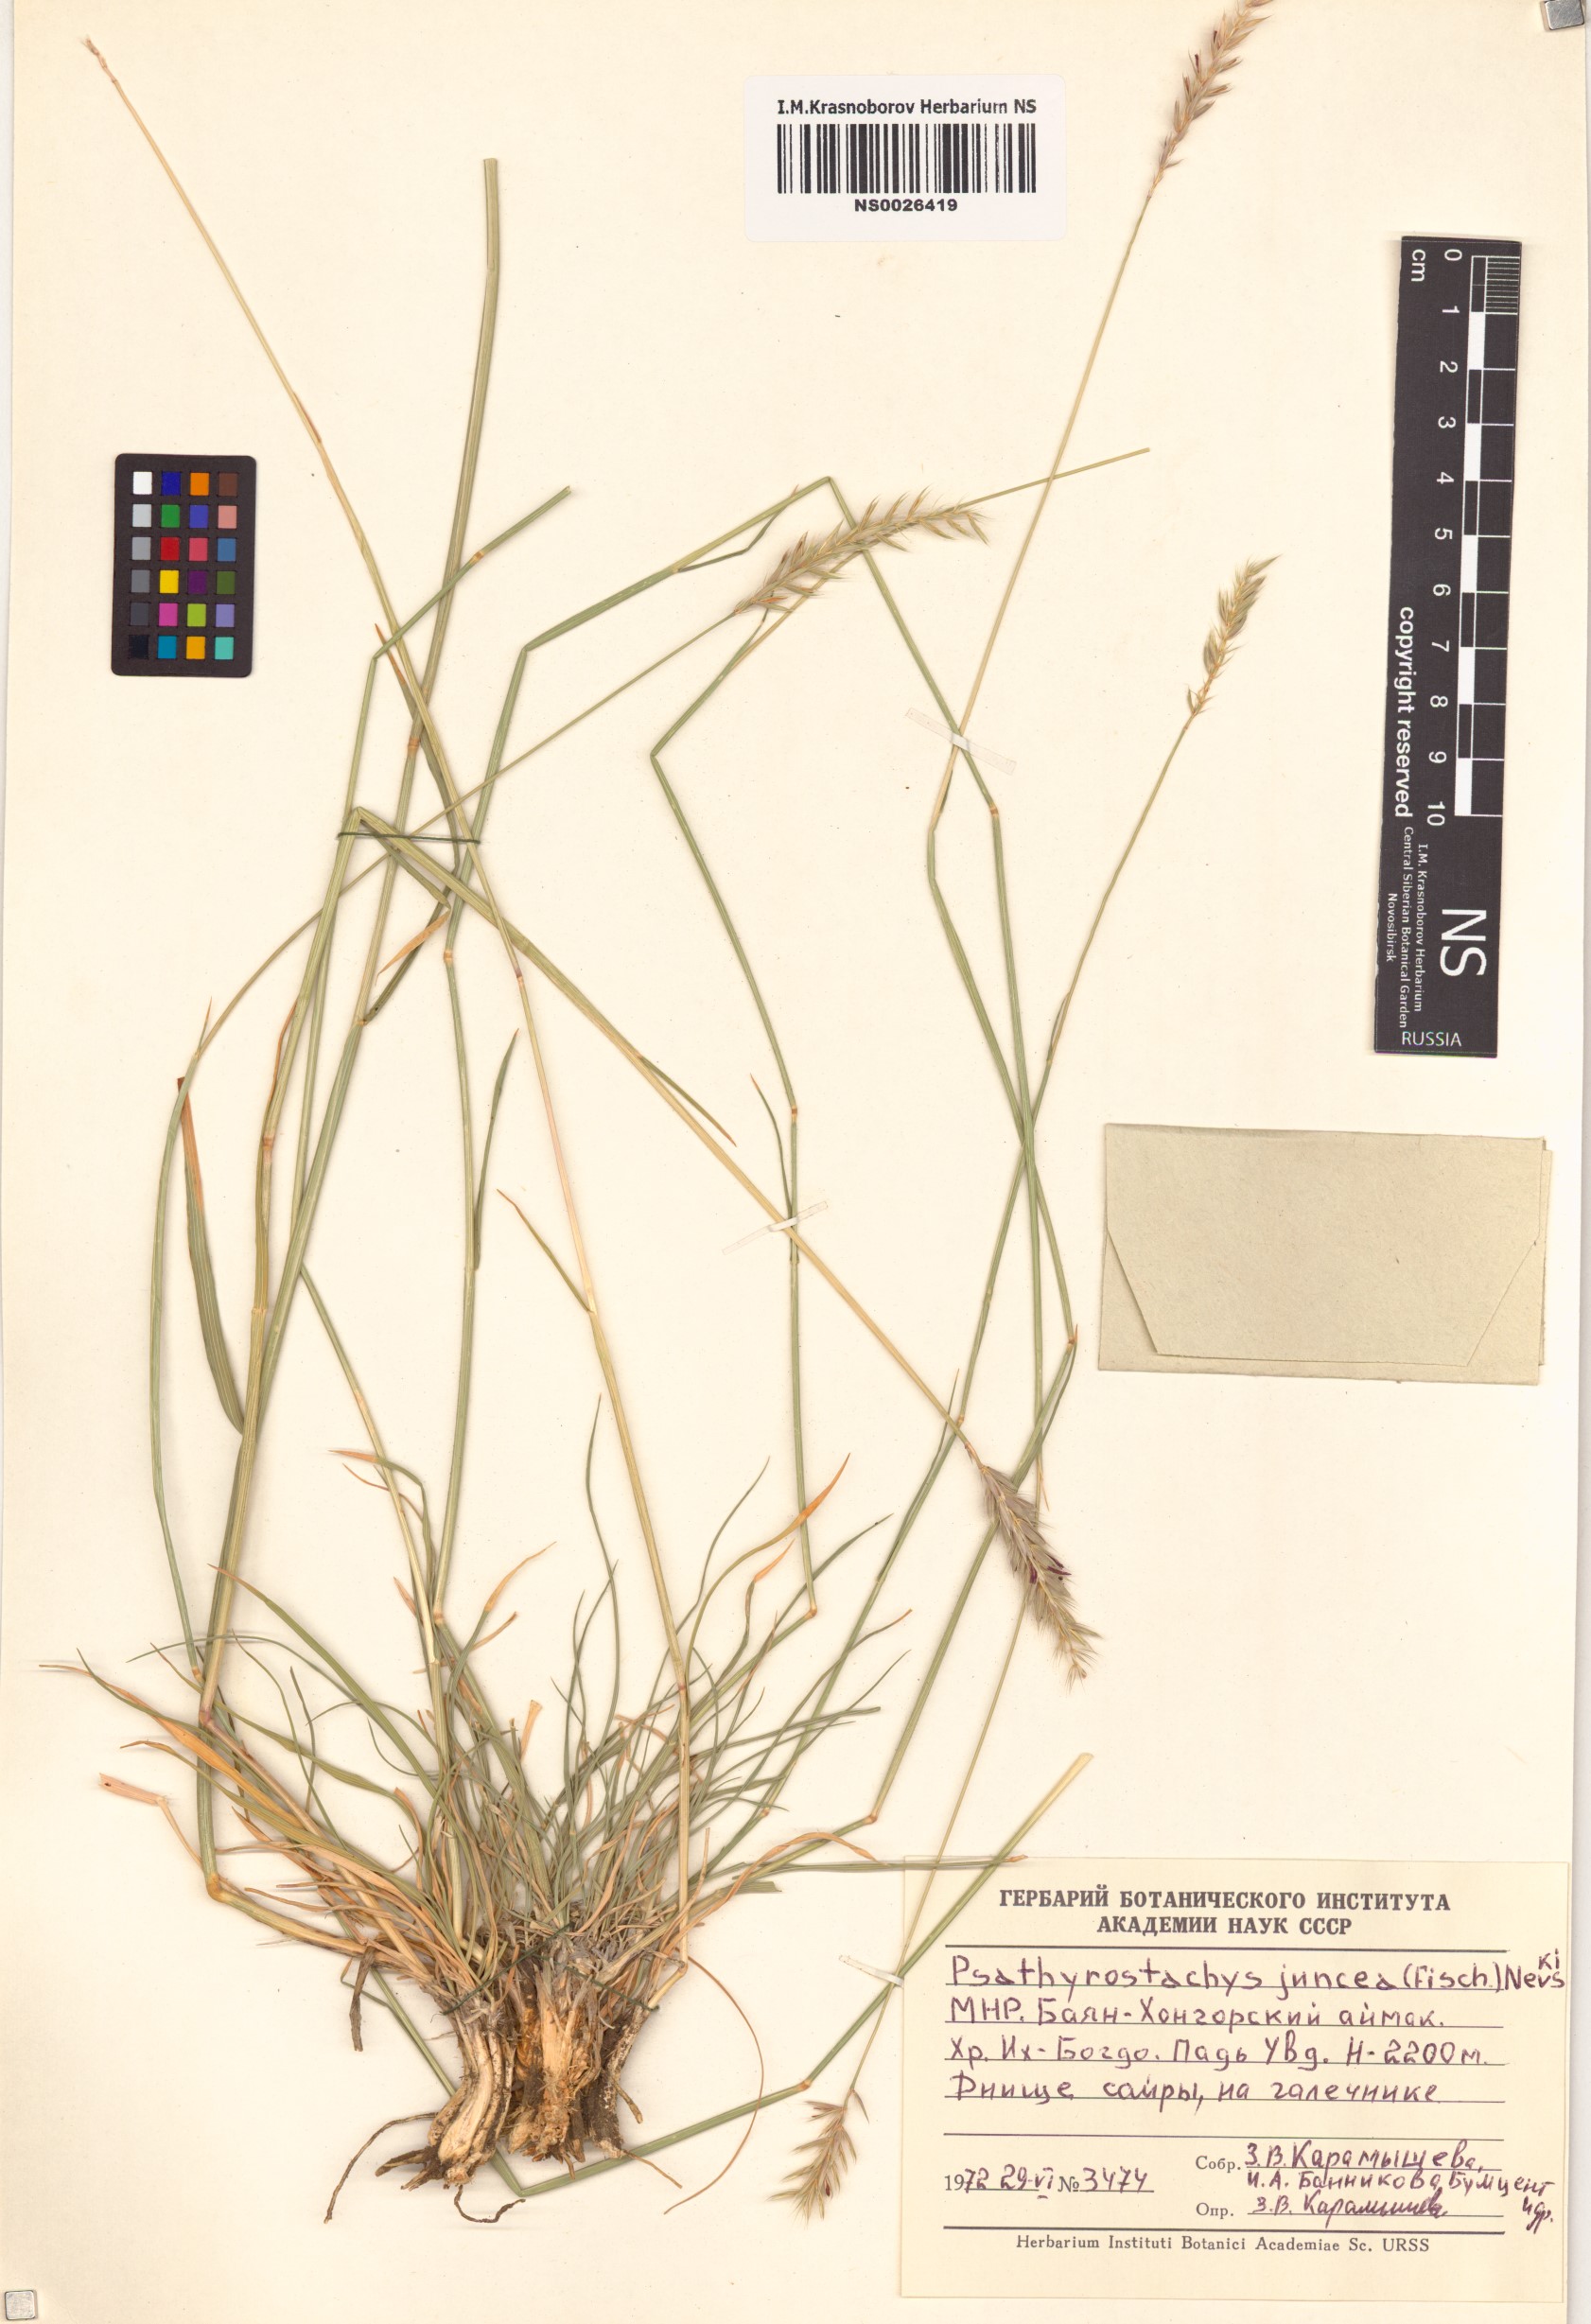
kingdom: Plantae
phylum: Tracheophyta
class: Liliopsida
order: Poales
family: Poaceae
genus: Psathyrostachys
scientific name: Psathyrostachys juncea
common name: Russian wildrye
